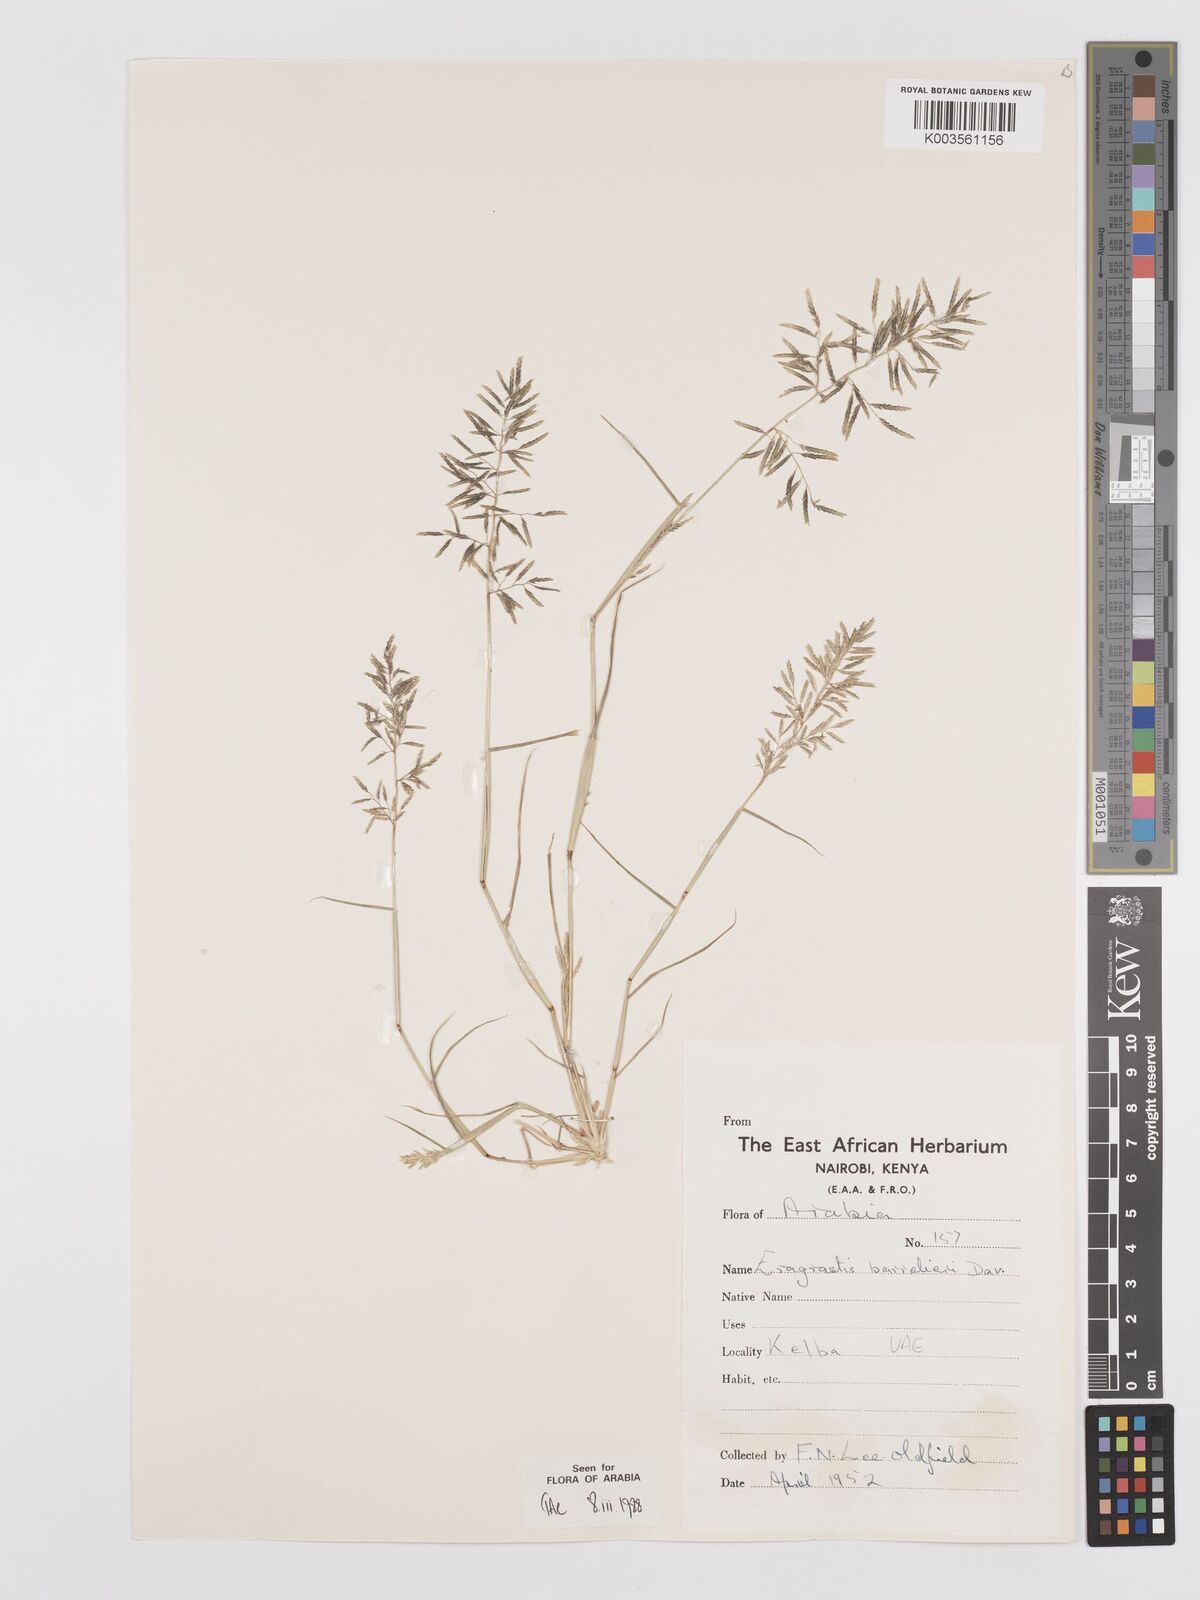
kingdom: Plantae
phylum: Tracheophyta
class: Liliopsida
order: Poales
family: Poaceae
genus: Eragrostis
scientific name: Eragrostis barrelieri
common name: Mediterranean lovegrass
